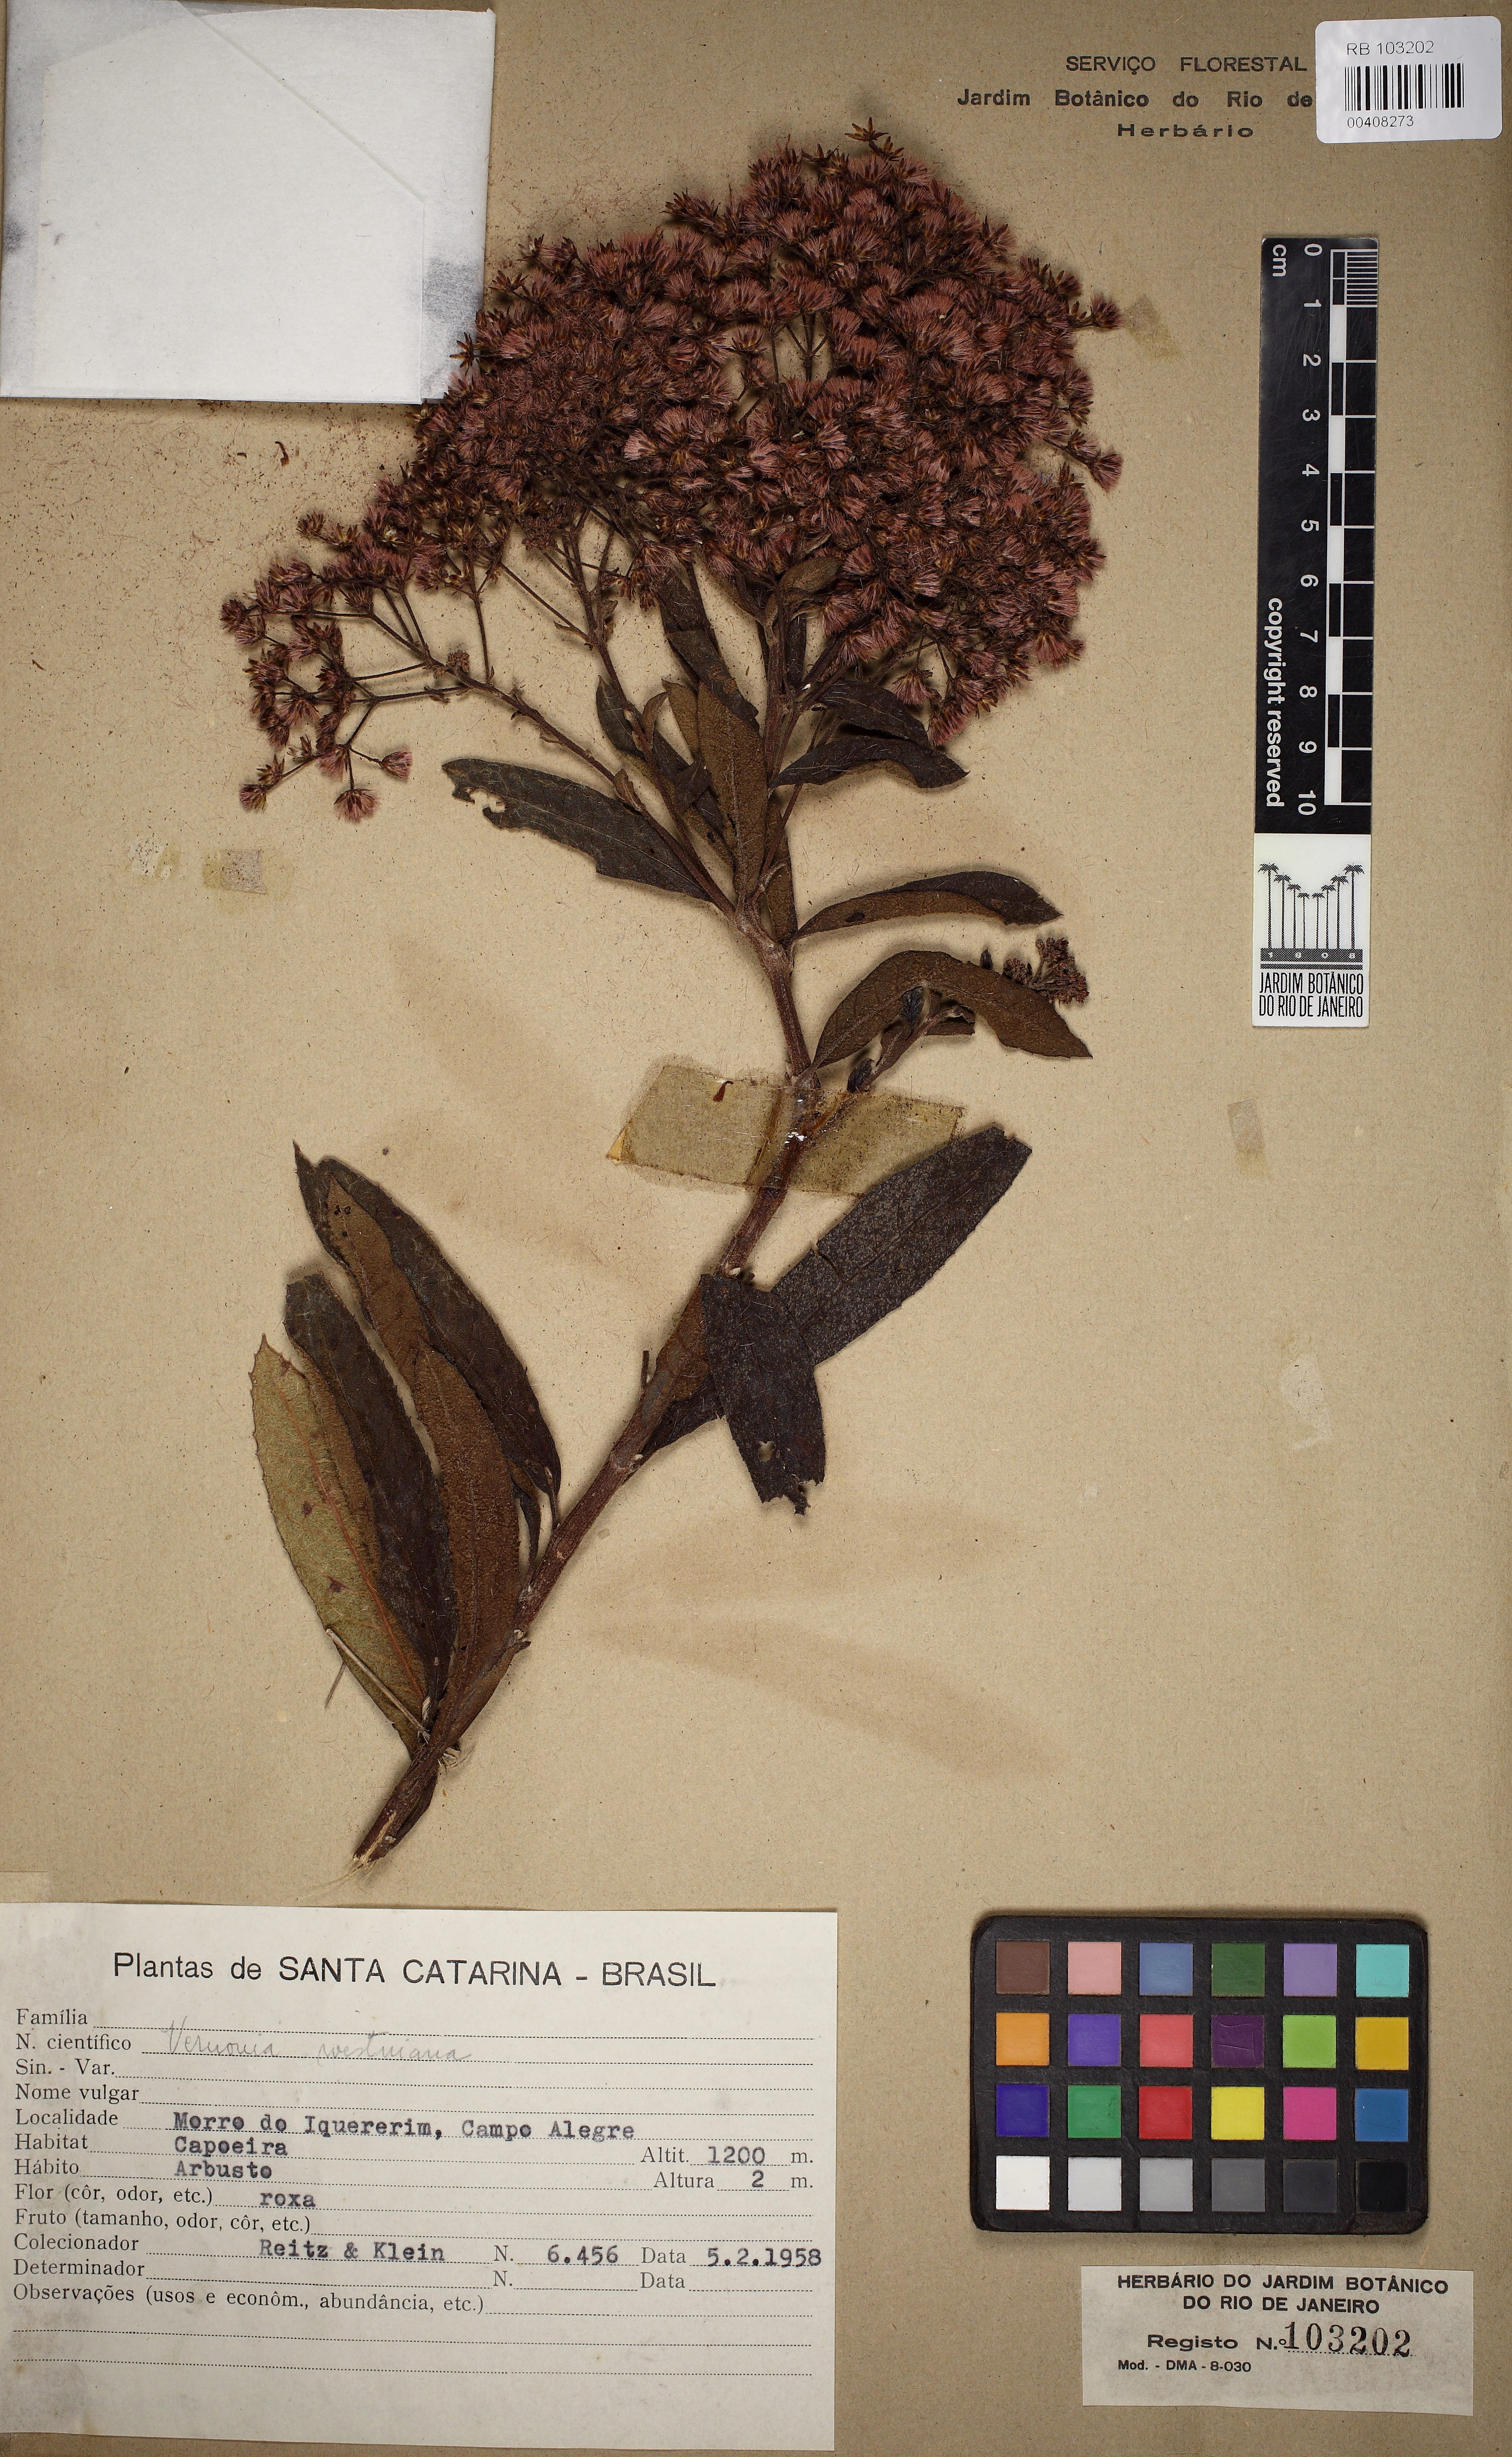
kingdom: Plantae
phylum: Tracheophyta
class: Magnoliopsida
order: Asterales
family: Asteraceae
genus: Vernonanthura
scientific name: Vernonanthura westiniana
